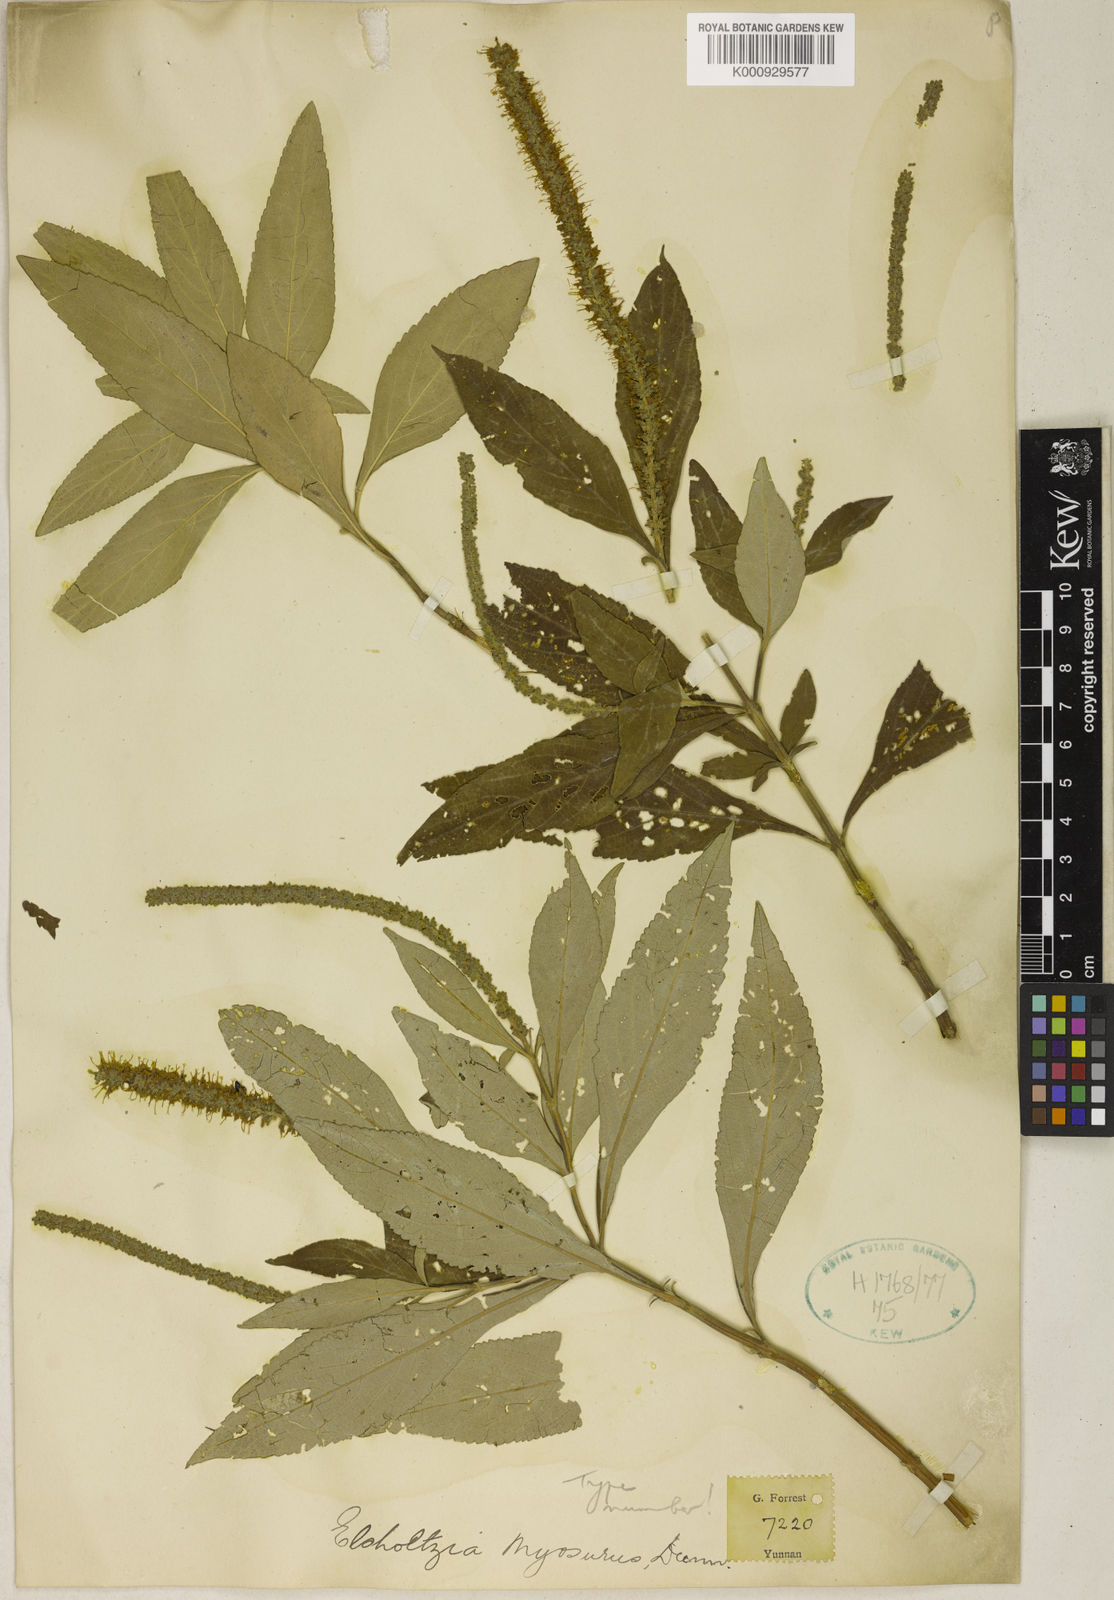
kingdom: Plantae
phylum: Tracheophyta
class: Magnoliopsida
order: Lamiales
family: Lamiaceae
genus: Elsholtzia
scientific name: Elsholtzia myosurus
